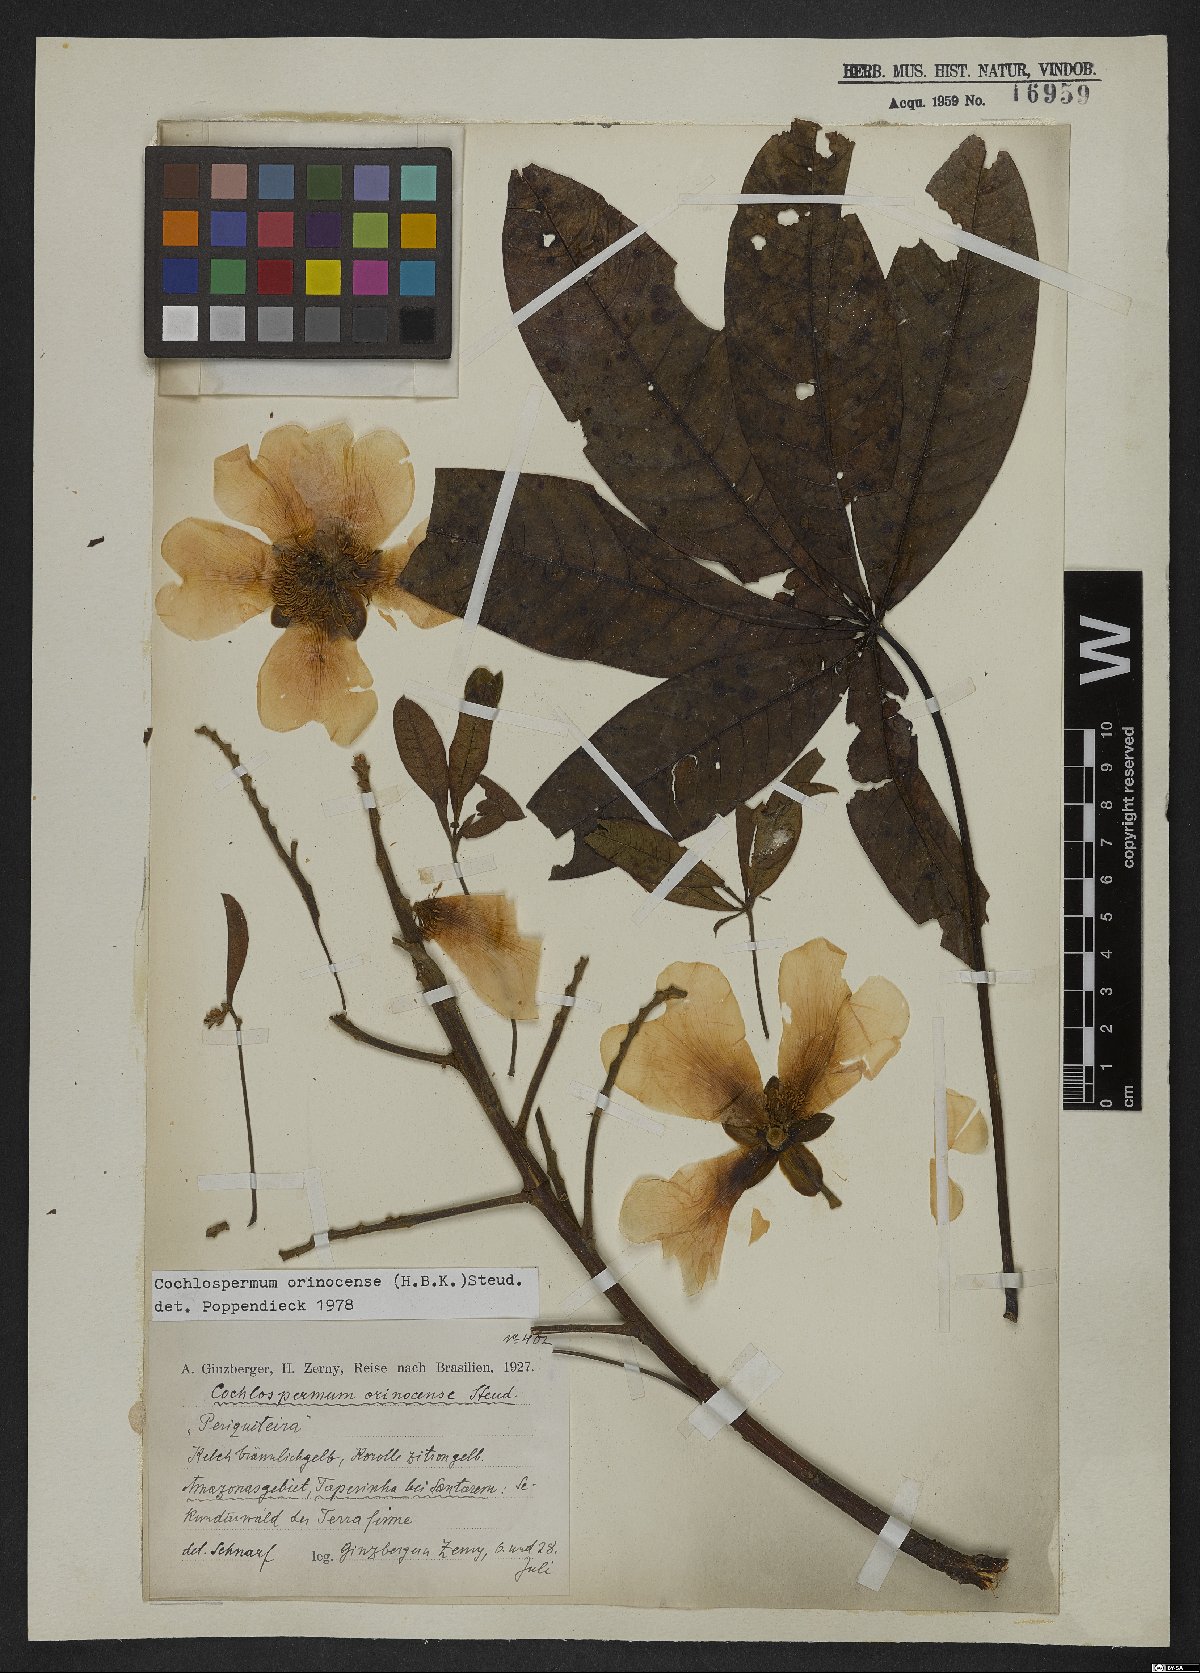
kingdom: Plantae
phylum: Tracheophyta
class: Magnoliopsida
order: Malvales
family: Cochlospermaceae
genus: Cochlospermum
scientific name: Cochlospermum orinocense
